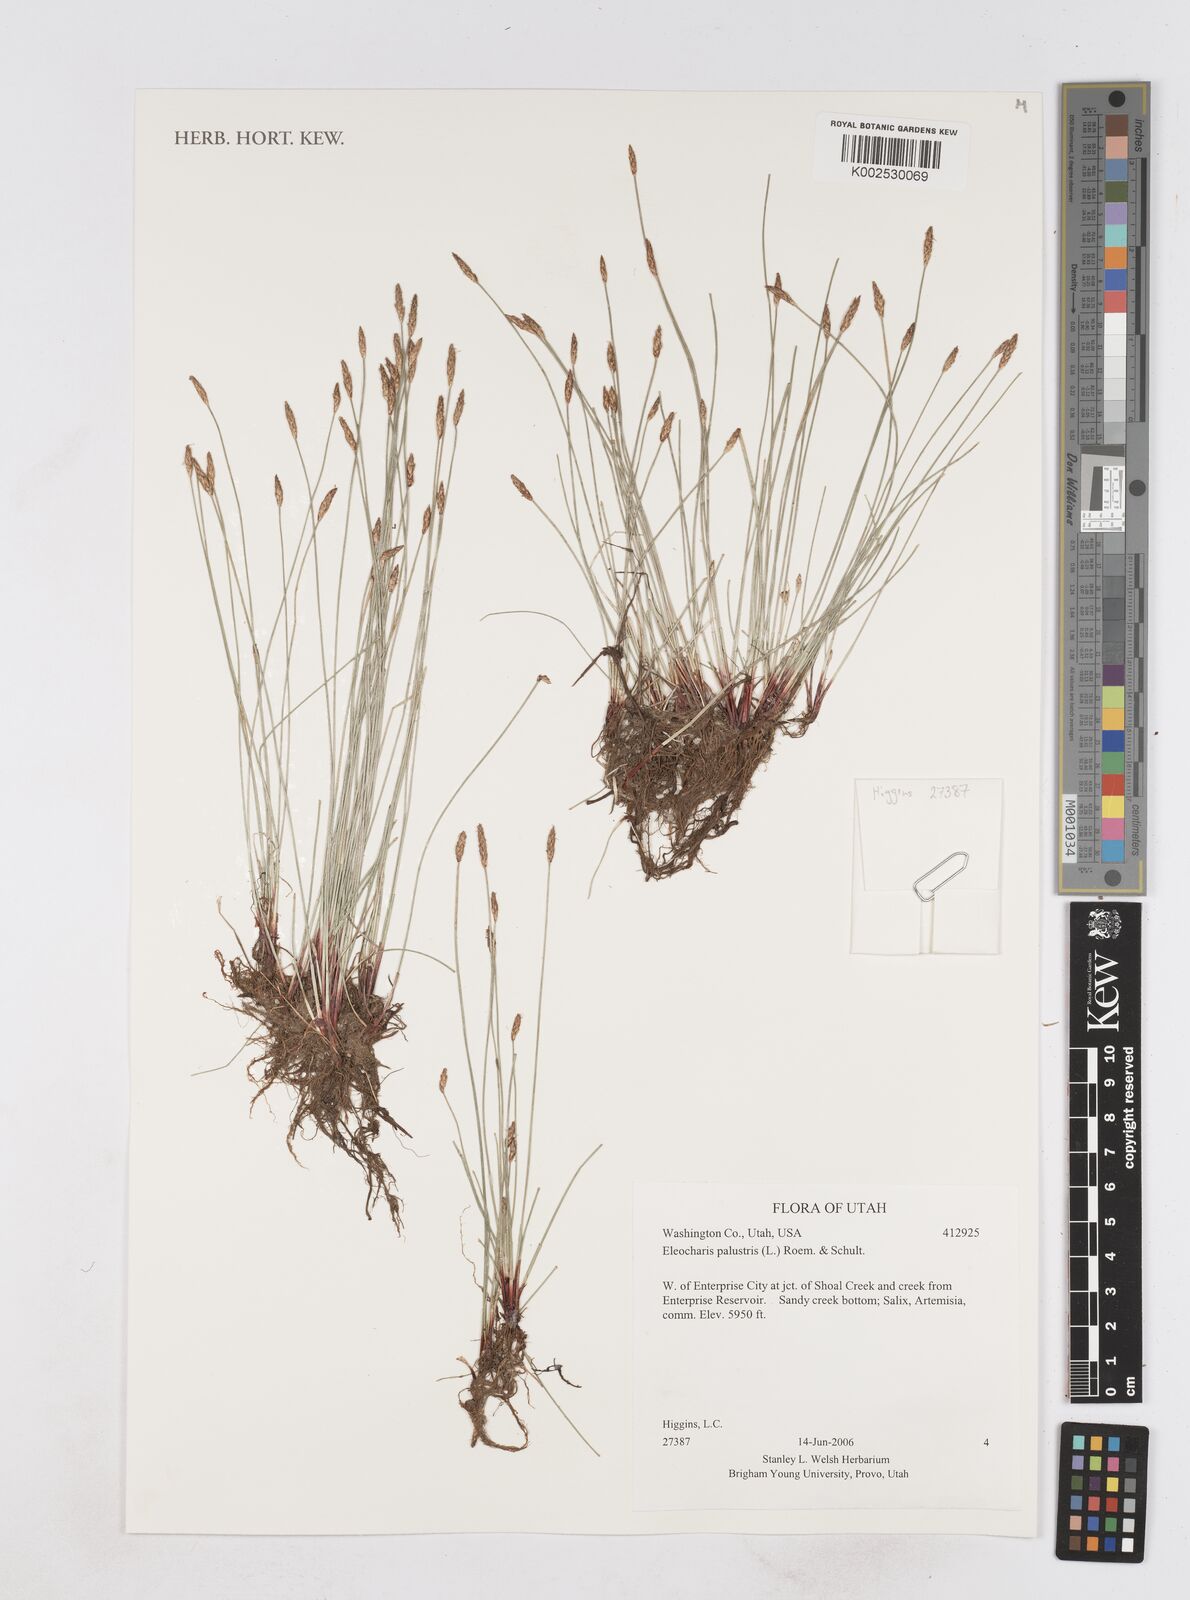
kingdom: Plantae
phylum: Tracheophyta
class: Liliopsida
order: Poales
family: Cyperaceae
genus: Eleocharis
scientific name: Eleocharis palustris
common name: Common spike-rush
